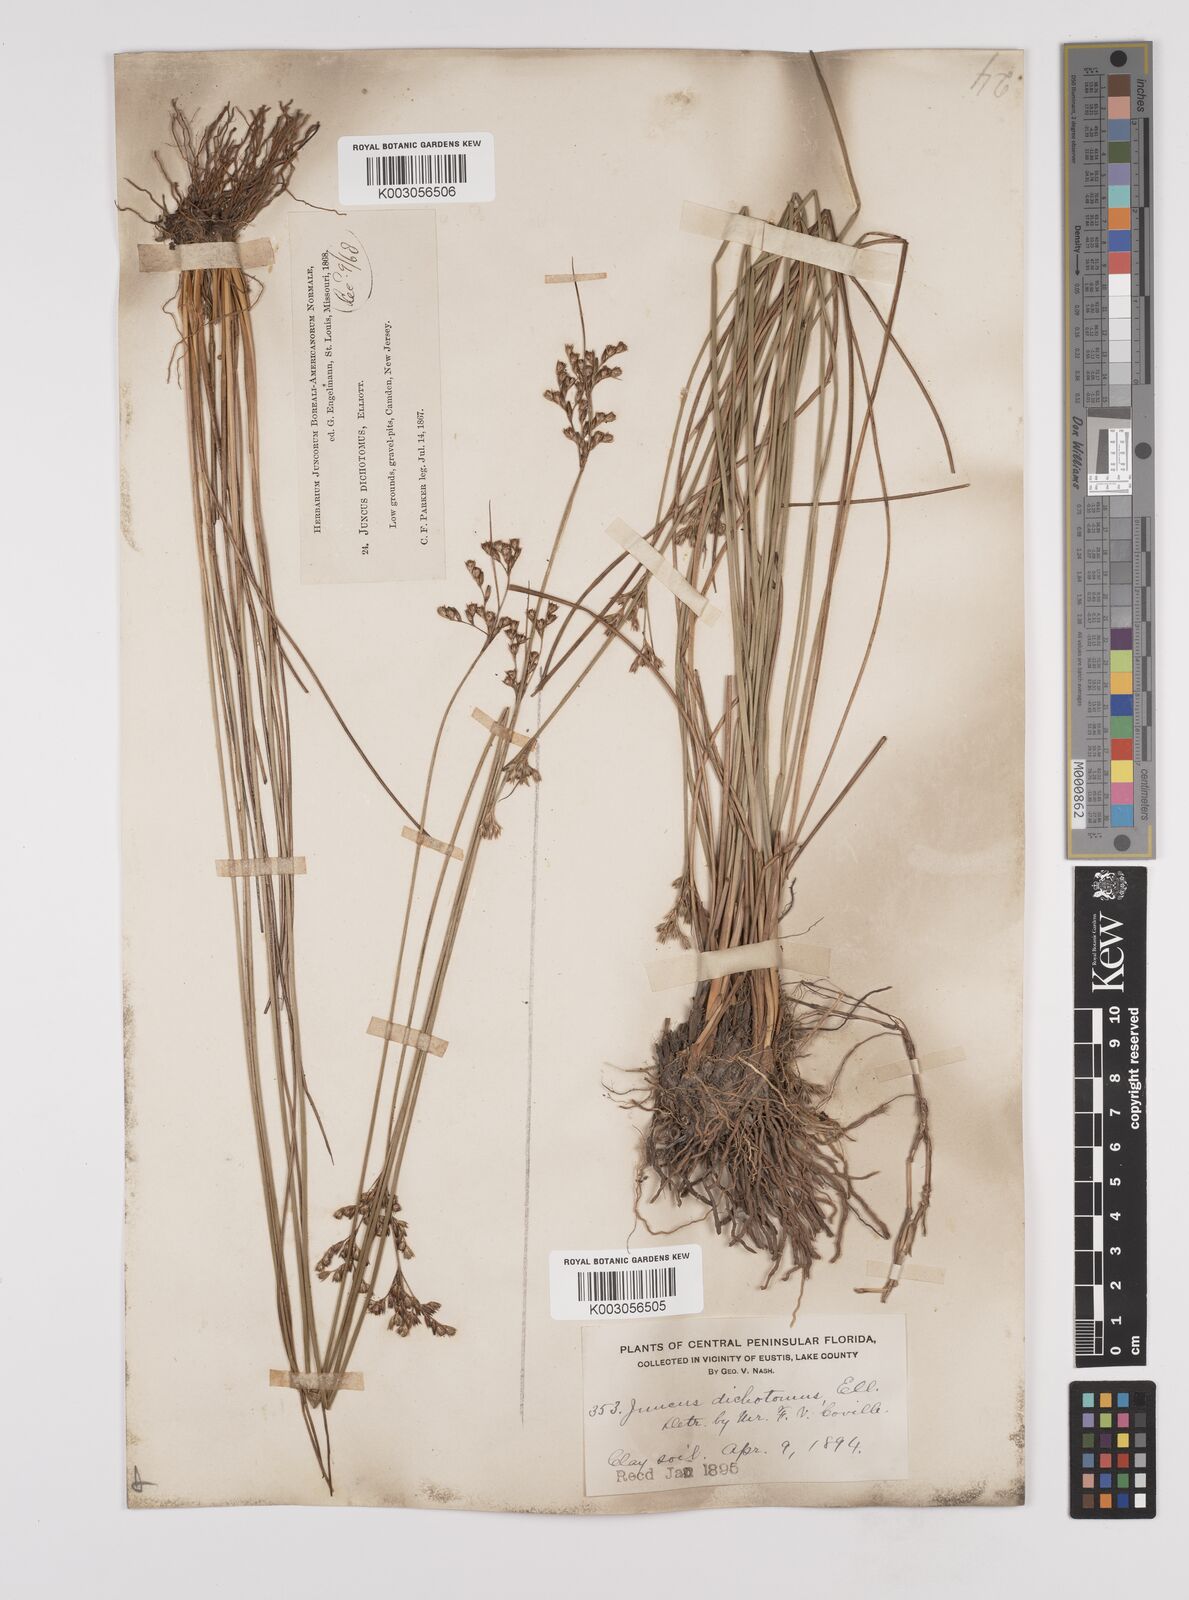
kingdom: Plantae
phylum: Tracheophyta
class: Liliopsida
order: Poales
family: Juncaceae
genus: Juncus
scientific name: Juncus dichotomus
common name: Forked rush
